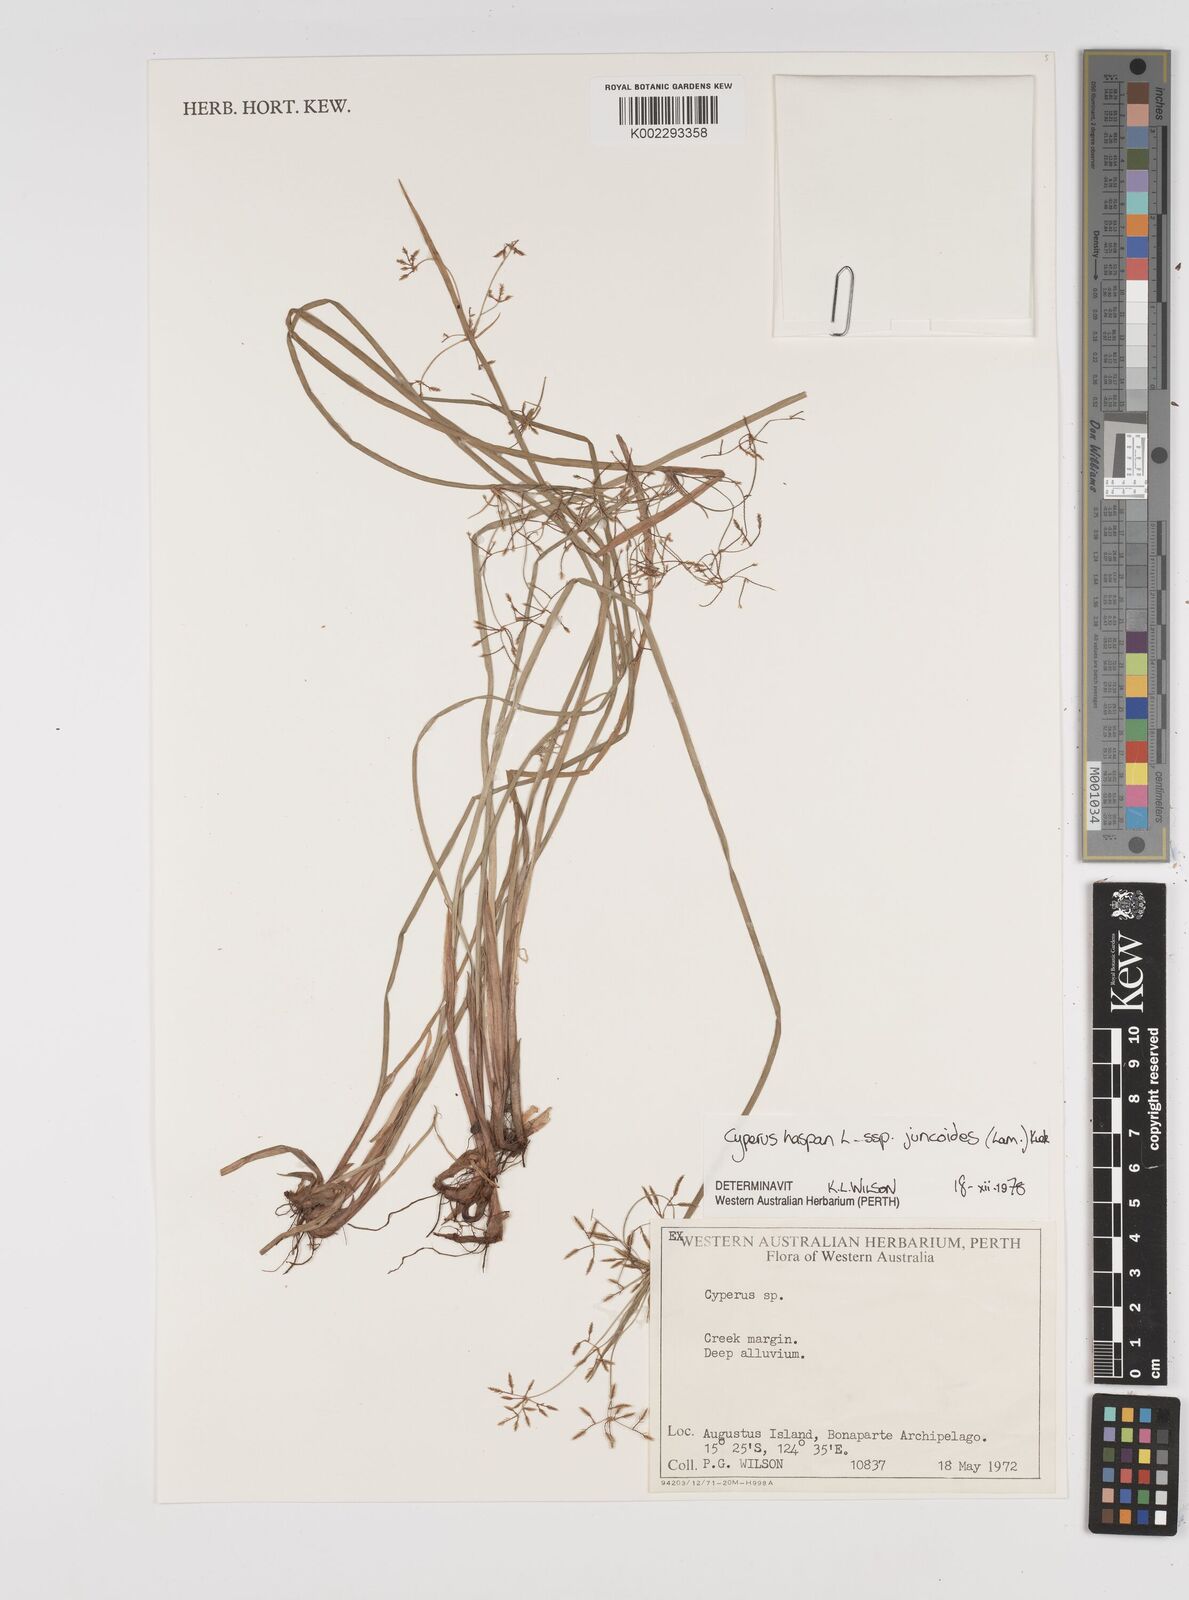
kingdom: Plantae
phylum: Tracheophyta
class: Liliopsida
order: Poales
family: Cyperaceae
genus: Cyperus
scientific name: Cyperus haspan
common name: Haspan flatsedge
